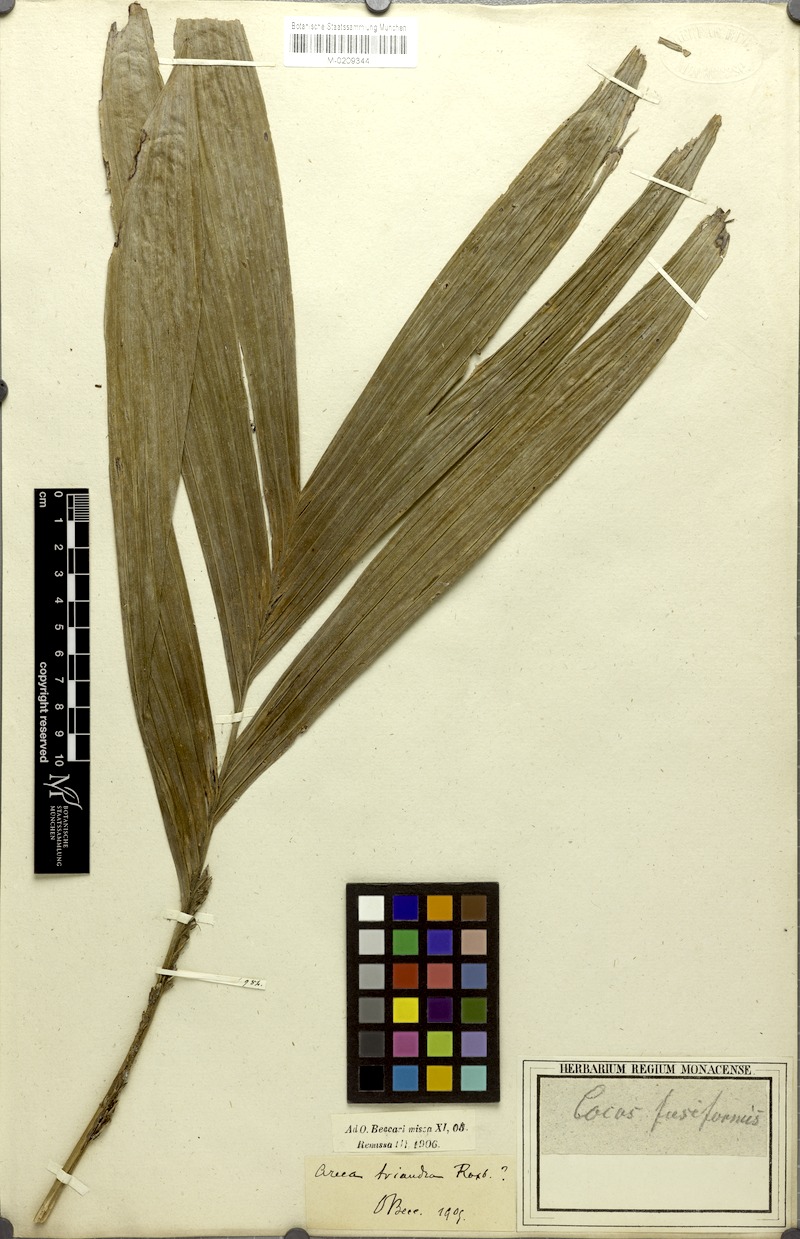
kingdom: Plantae
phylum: Tracheophyta
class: Liliopsida
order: Arecales
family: Arecaceae
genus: Areca
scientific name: Areca triandra
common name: Australian areca palm
